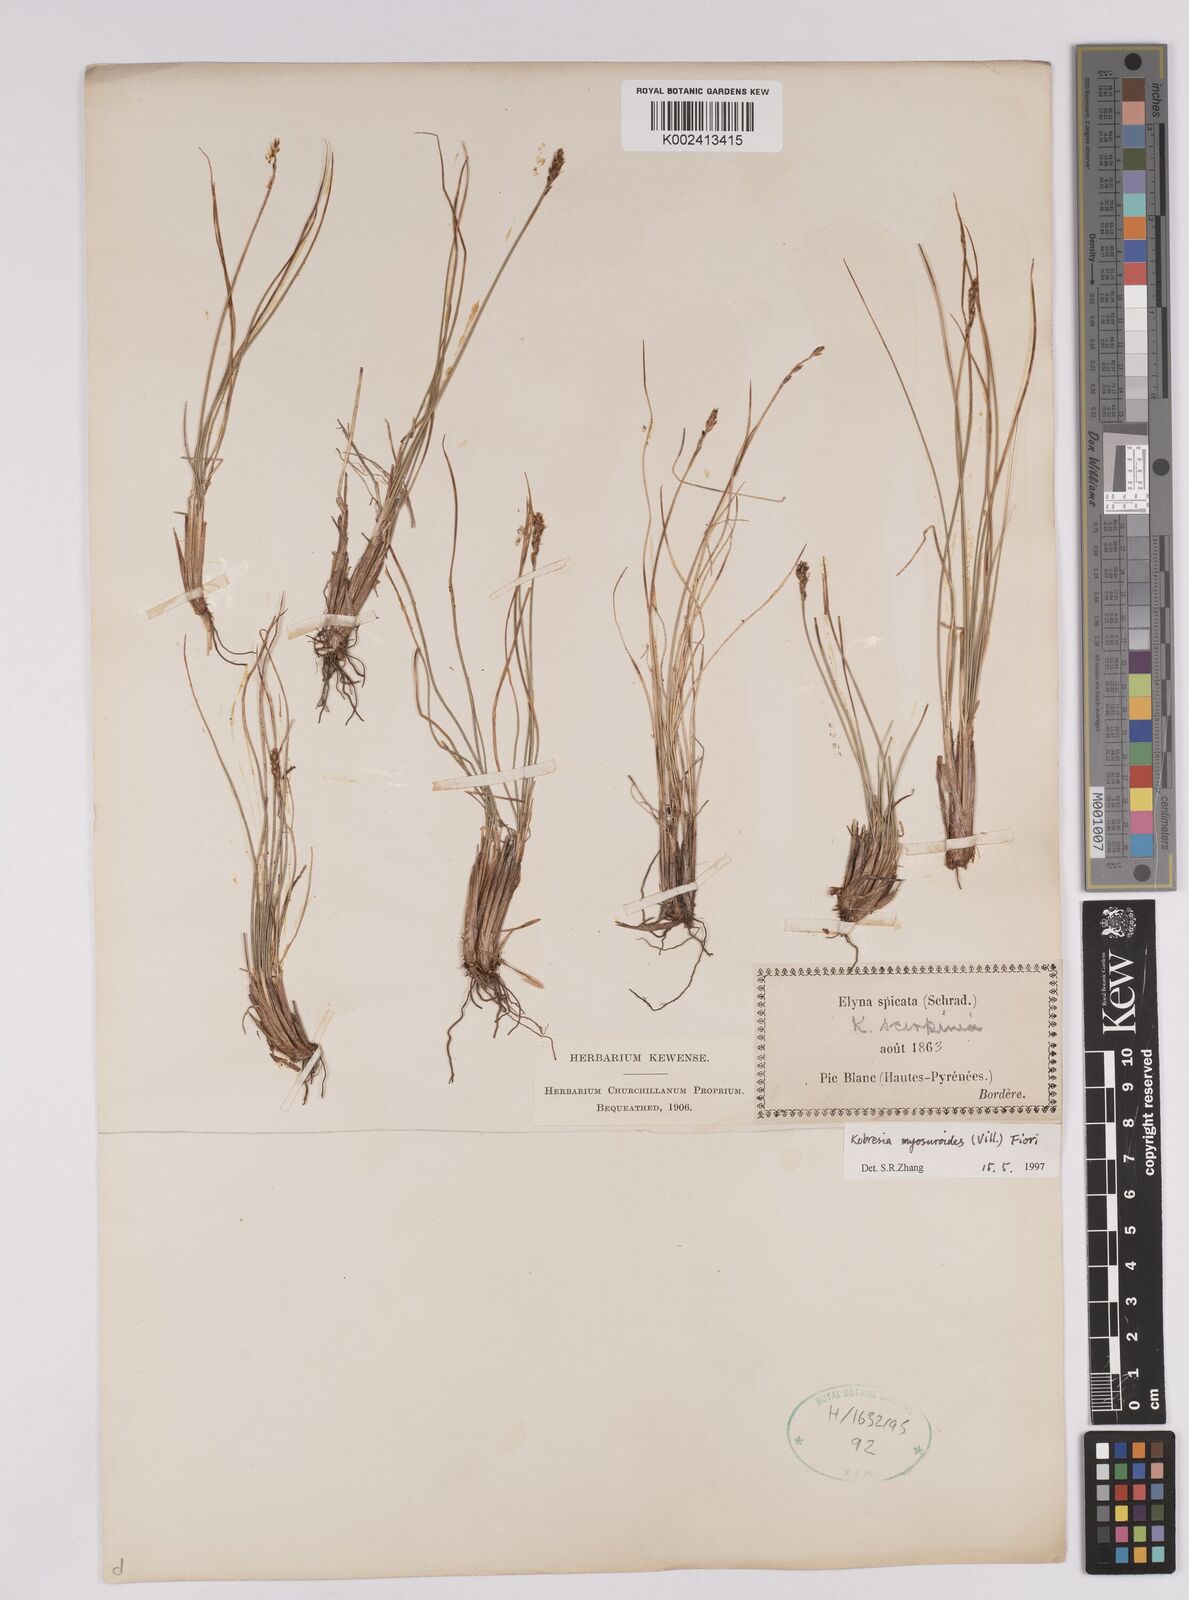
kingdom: Plantae
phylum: Tracheophyta
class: Liliopsida
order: Poales
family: Cyperaceae
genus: Carex
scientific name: Carex myosuroides
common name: Bellard's bog sedge
